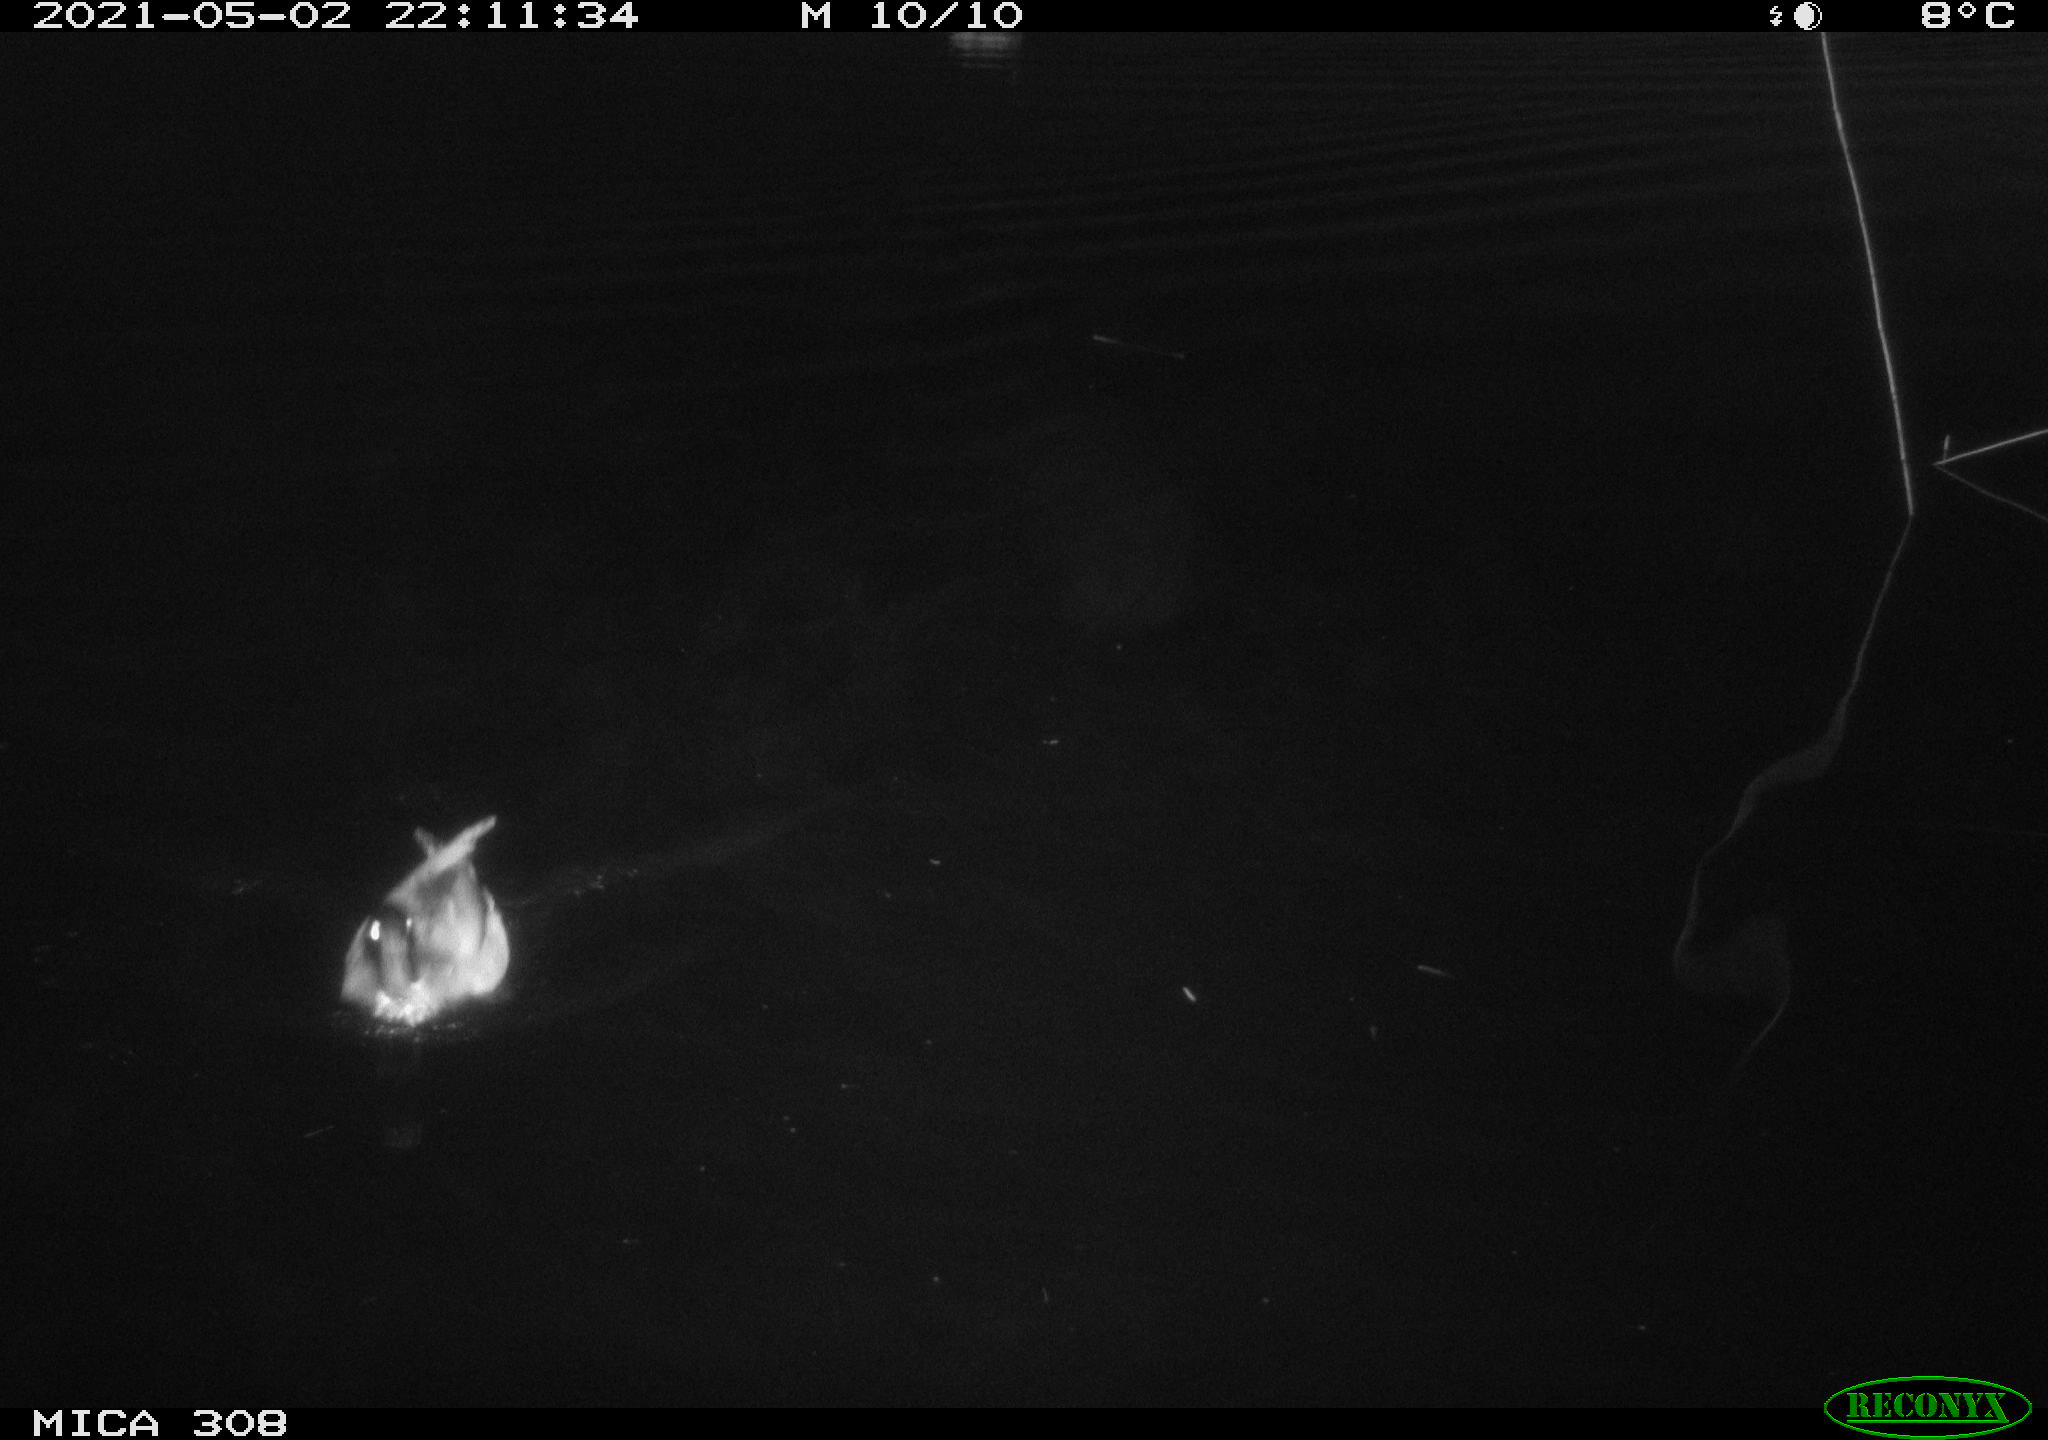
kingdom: Animalia
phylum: Chordata
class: Aves
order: Anseriformes
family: Anatidae
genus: Anas
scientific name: Anas platyrhynchos
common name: Mallard
